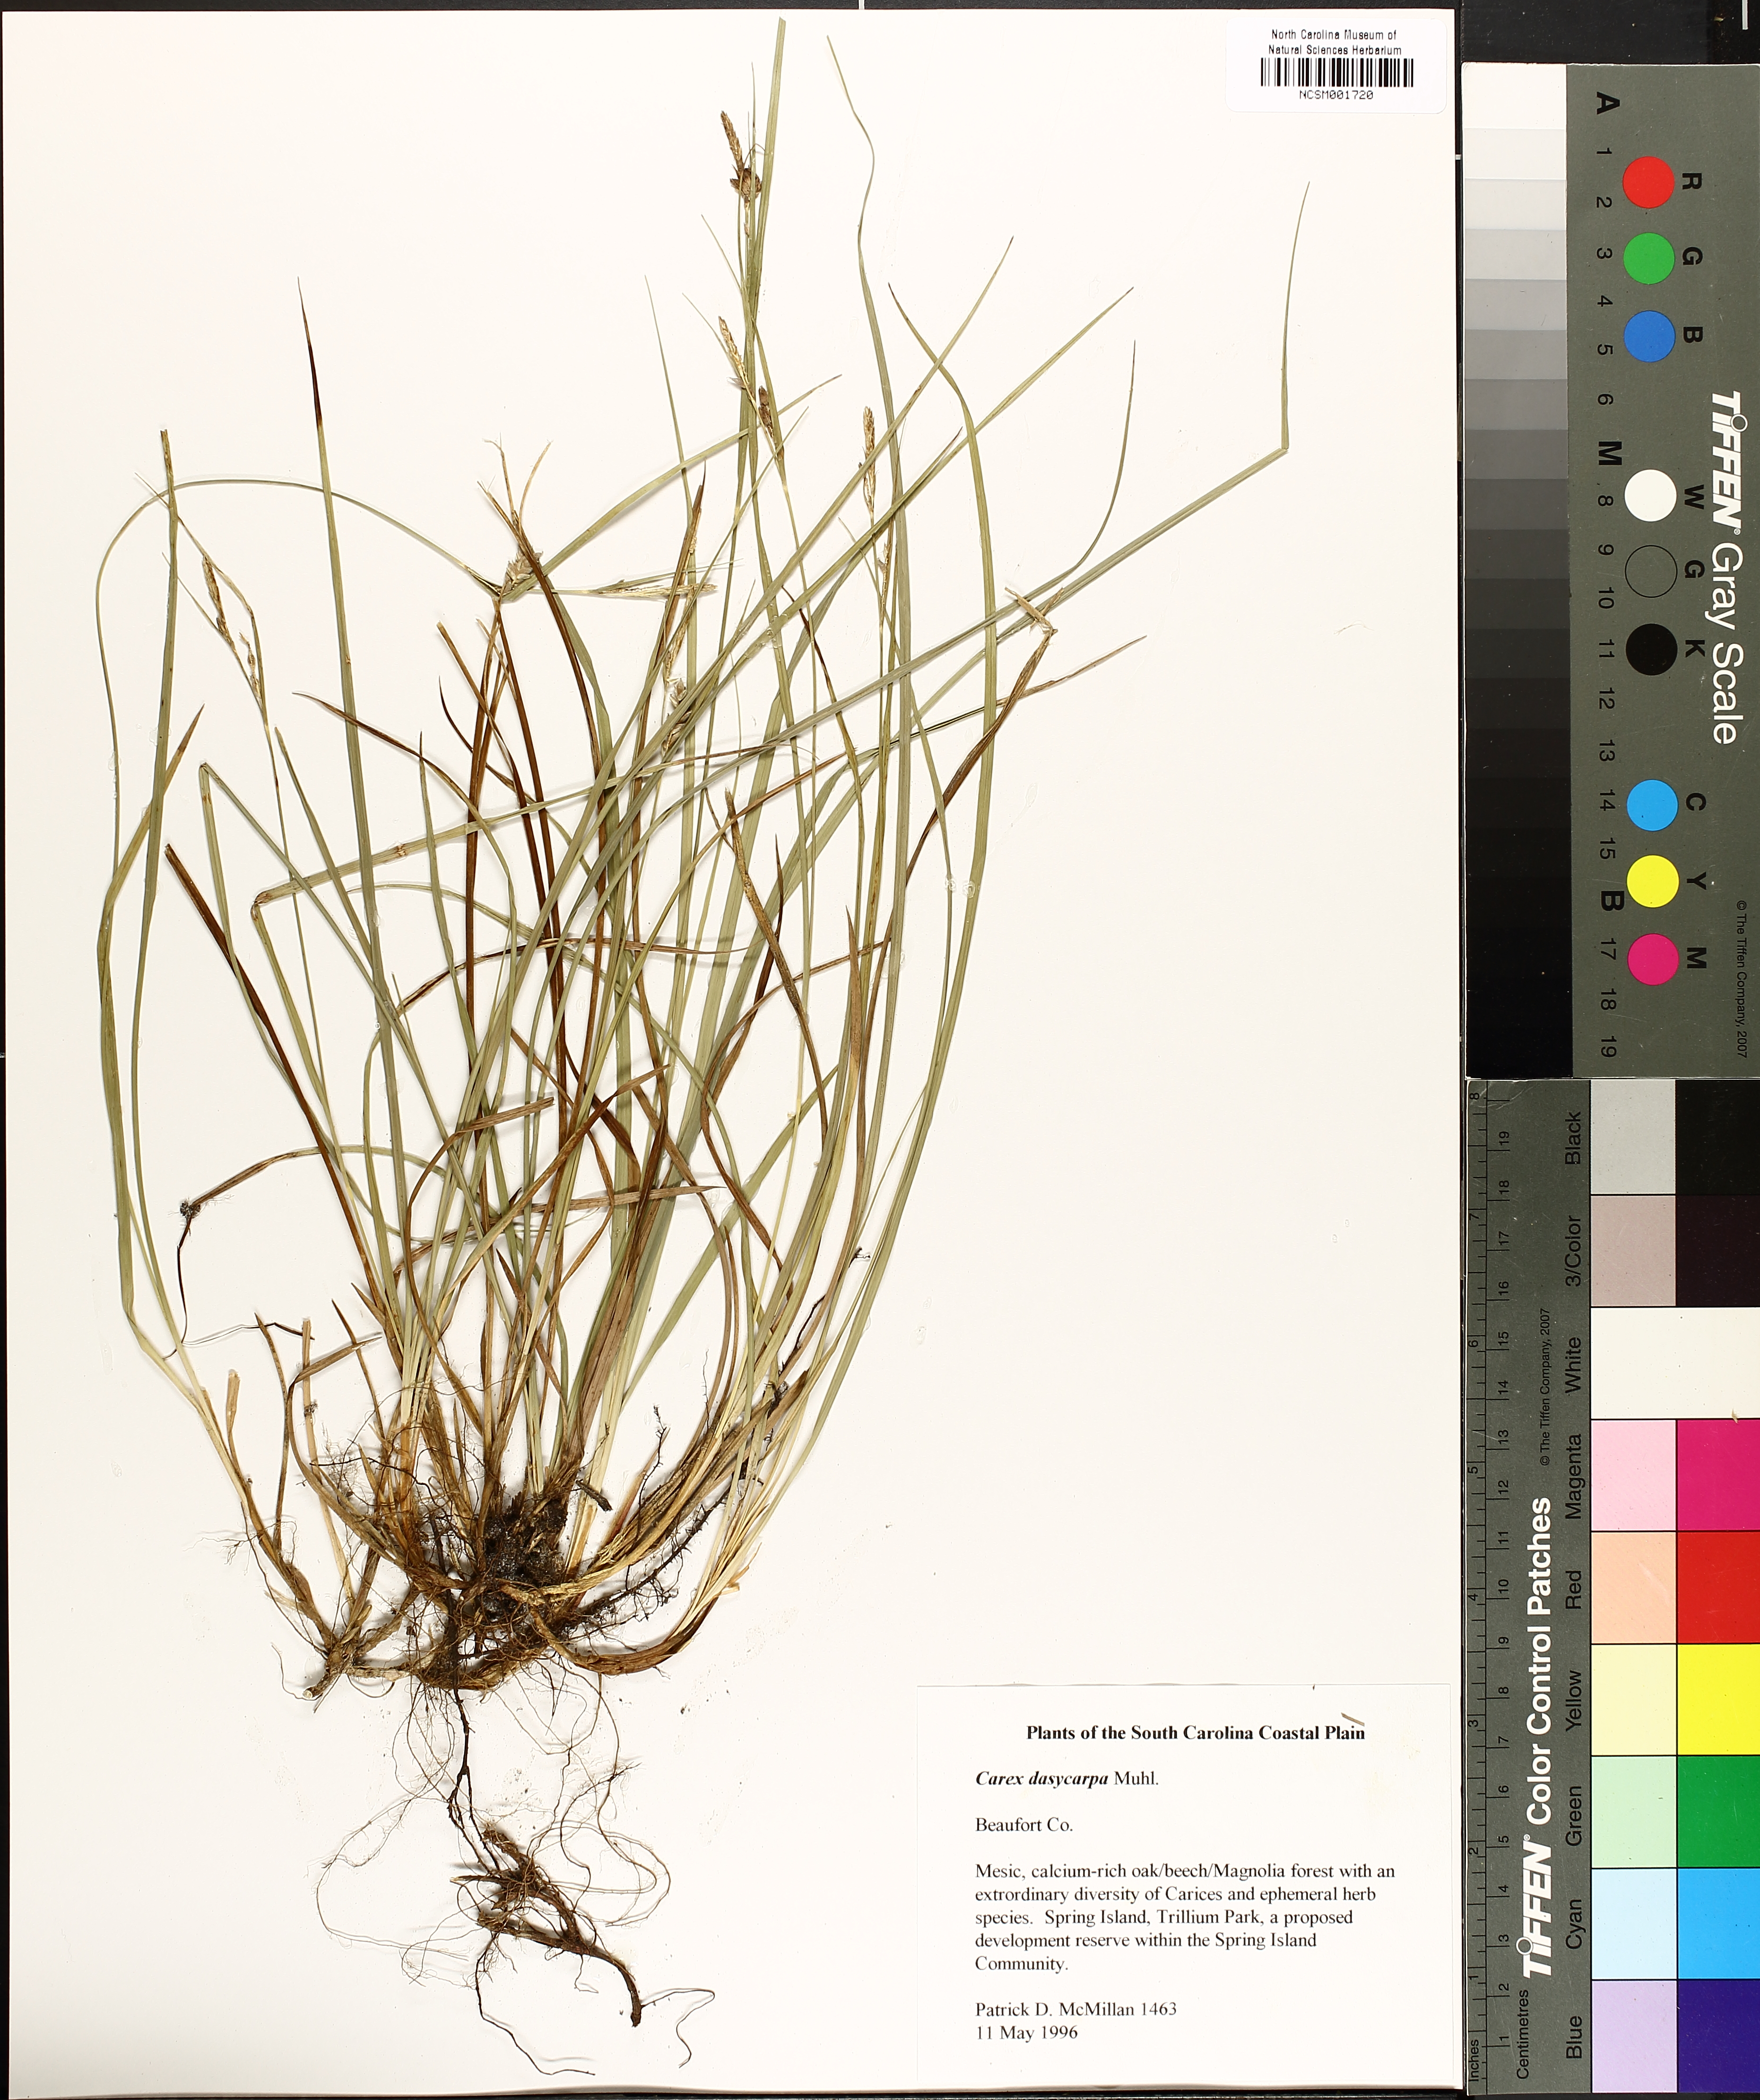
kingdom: Plantae
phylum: Tracheophyta
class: Liliopsida
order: Poales
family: Cyperaceae
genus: Carex
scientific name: Carex dasycarpa
